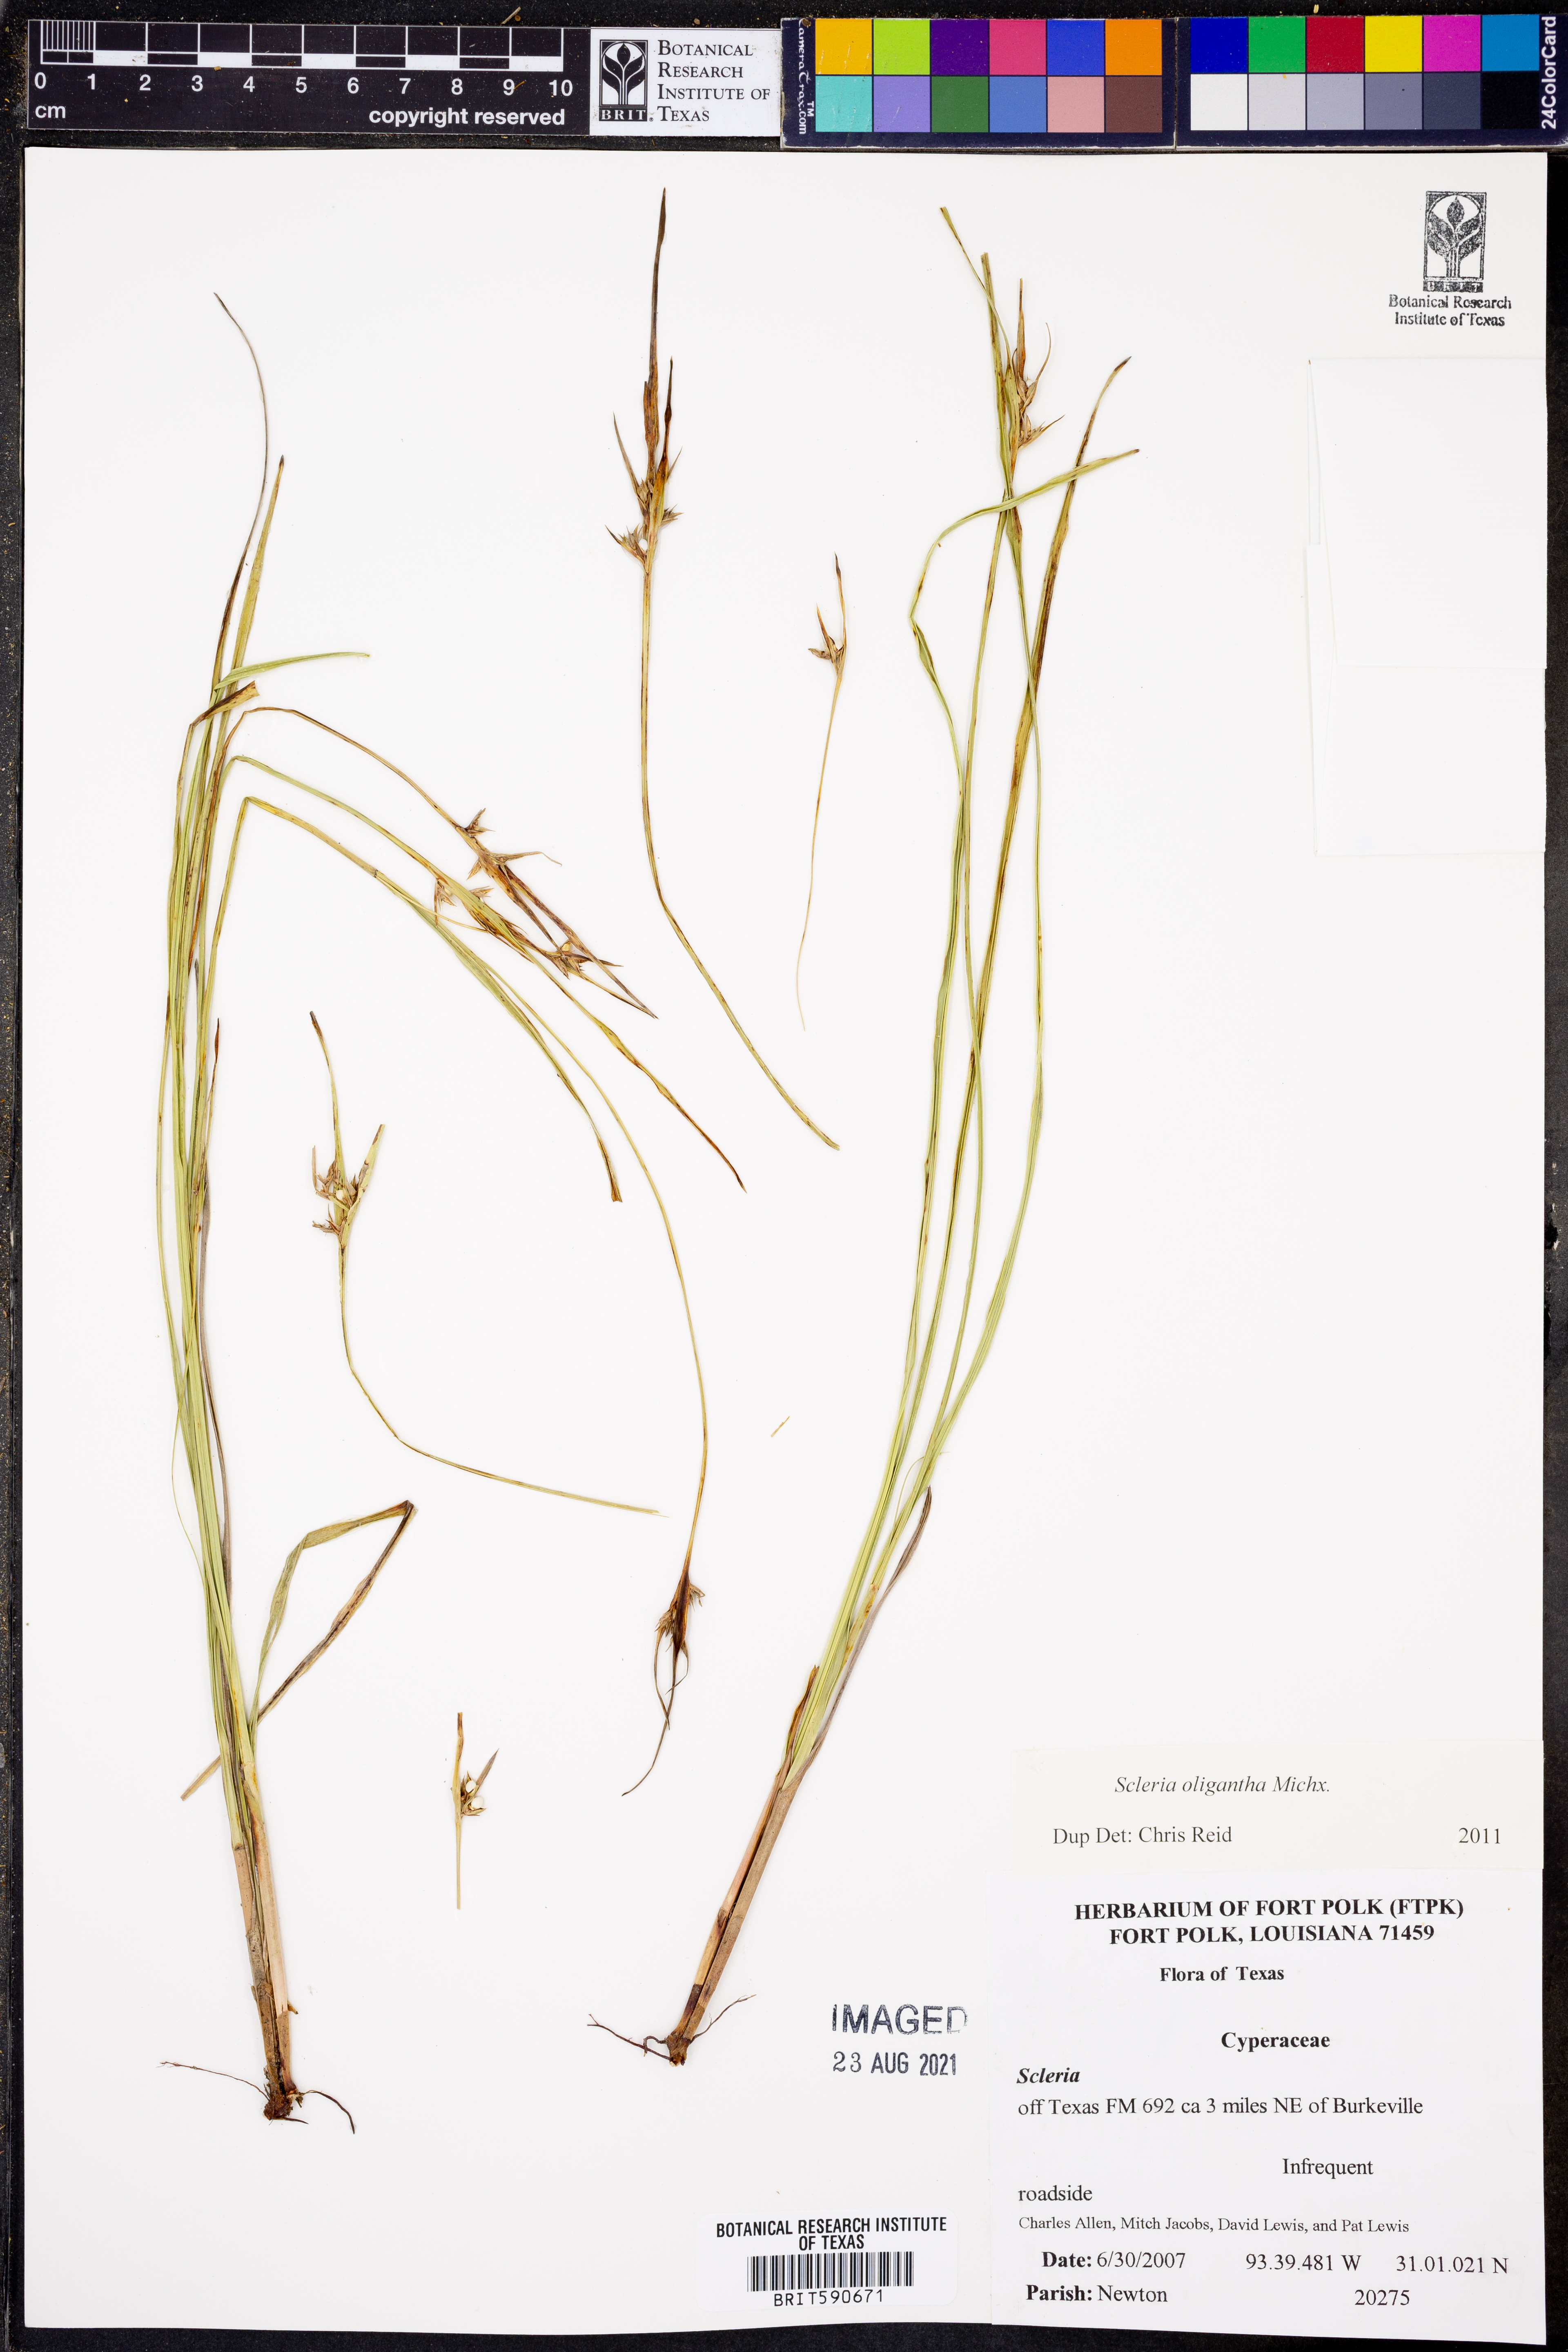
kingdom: Plantae
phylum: Tracheophyta
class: Liliopsida
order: Poales
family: Cyperaceae
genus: Scleria
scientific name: Scleria oligantha
